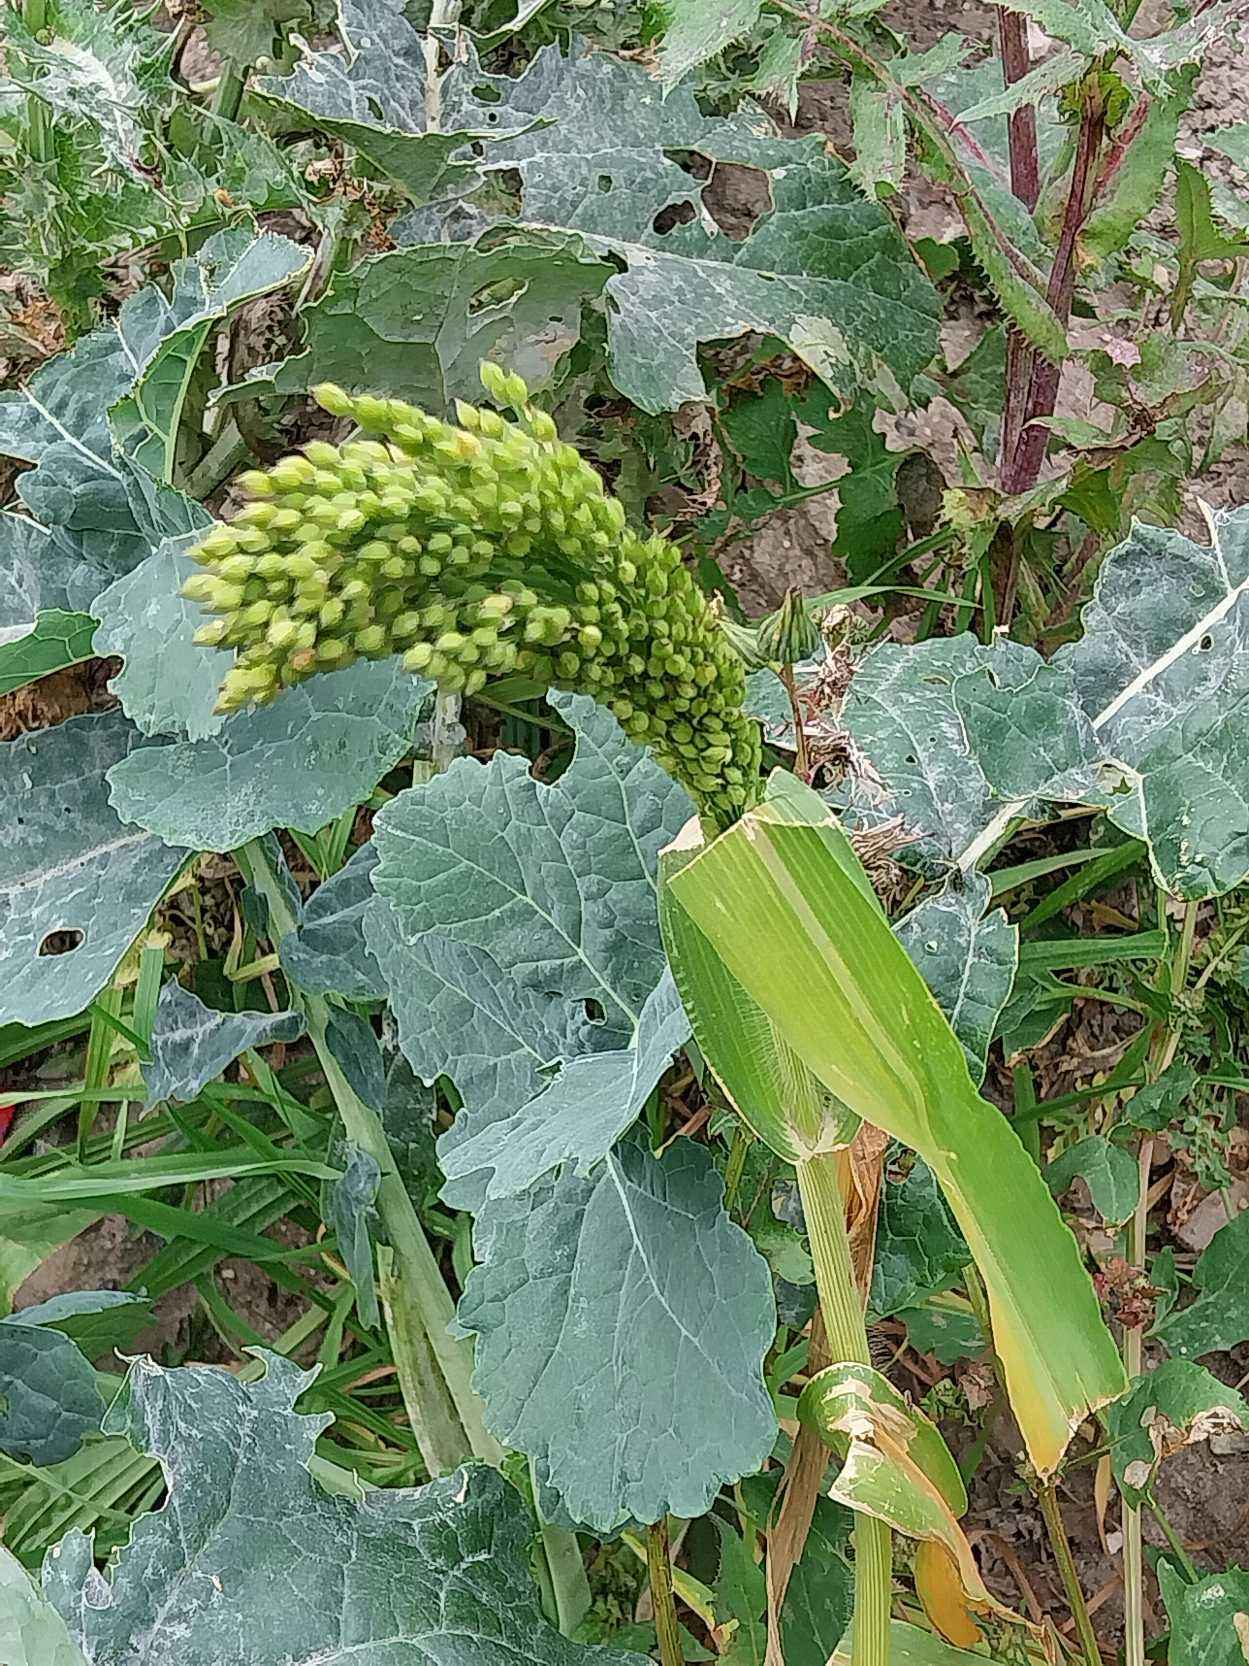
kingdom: Plantae
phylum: Tracheophyta
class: Liliopsida
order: Poales
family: Poaceae
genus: Panicum
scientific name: Panicum miliaceum
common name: Almindelig hirse
